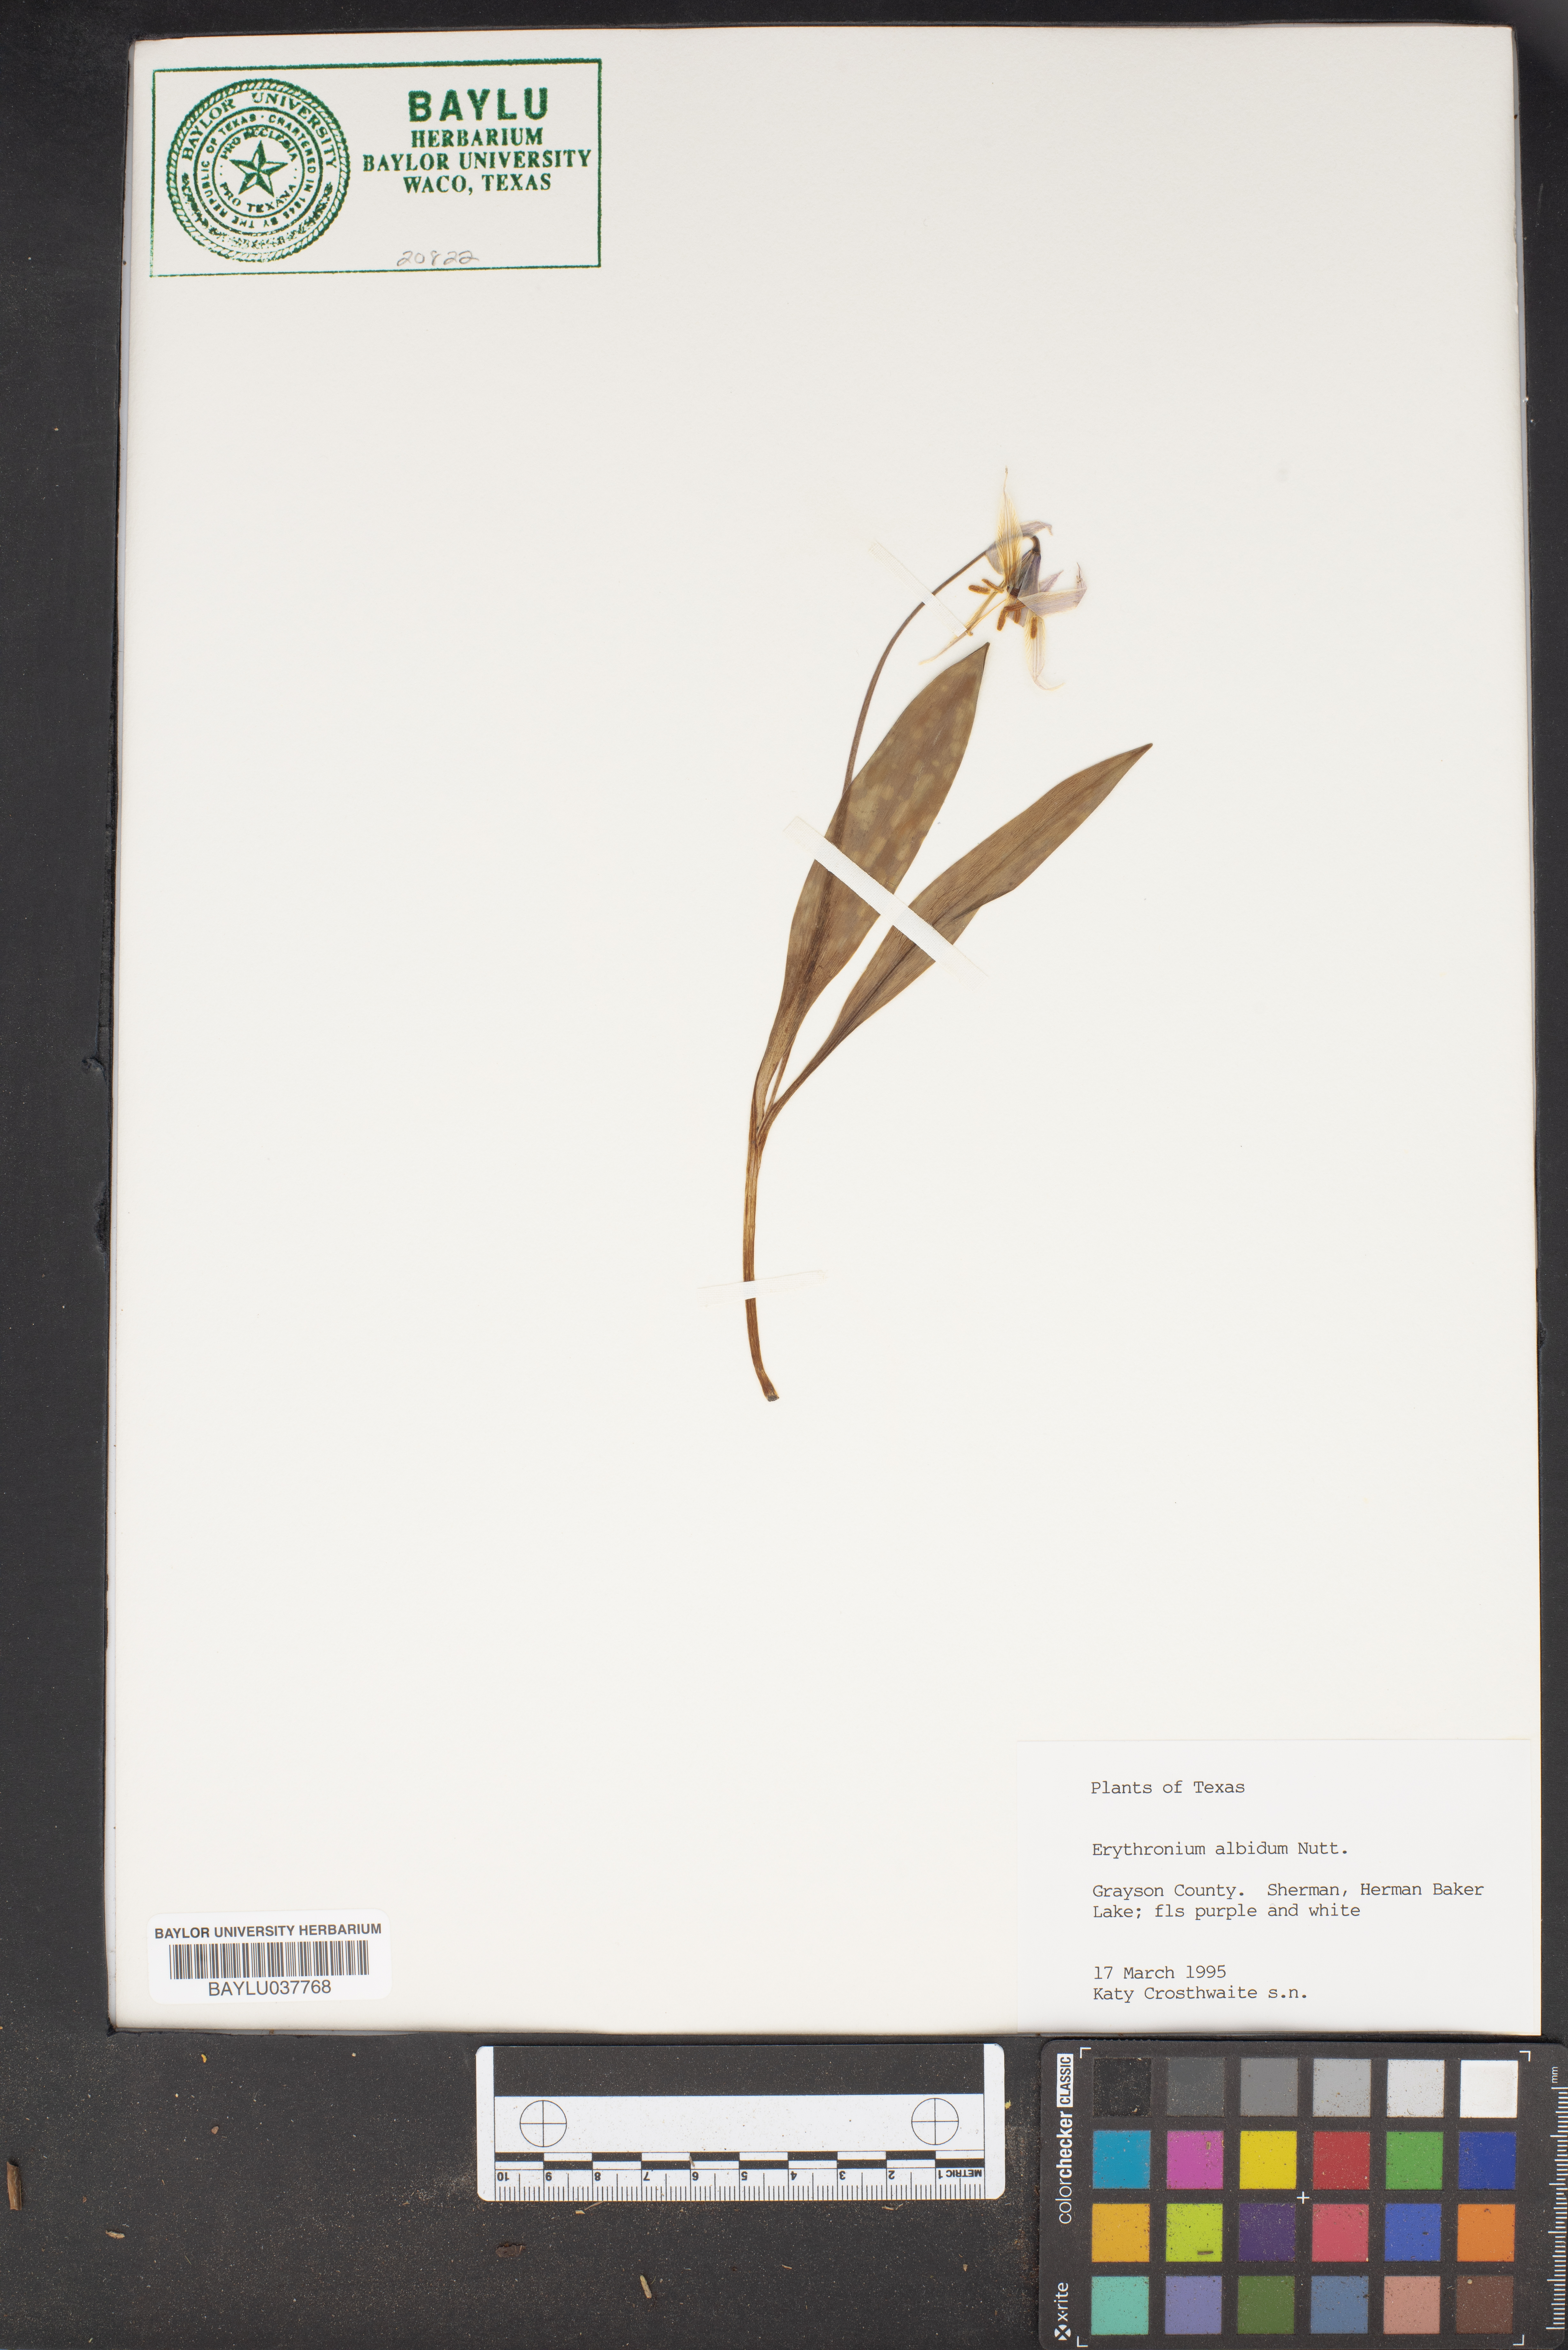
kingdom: Plantae
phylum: Tracheophyta
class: Liliopsida
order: Liliales
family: Liliaceae
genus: Erythronium
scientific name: Erythronium albidum
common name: White trout-lily
